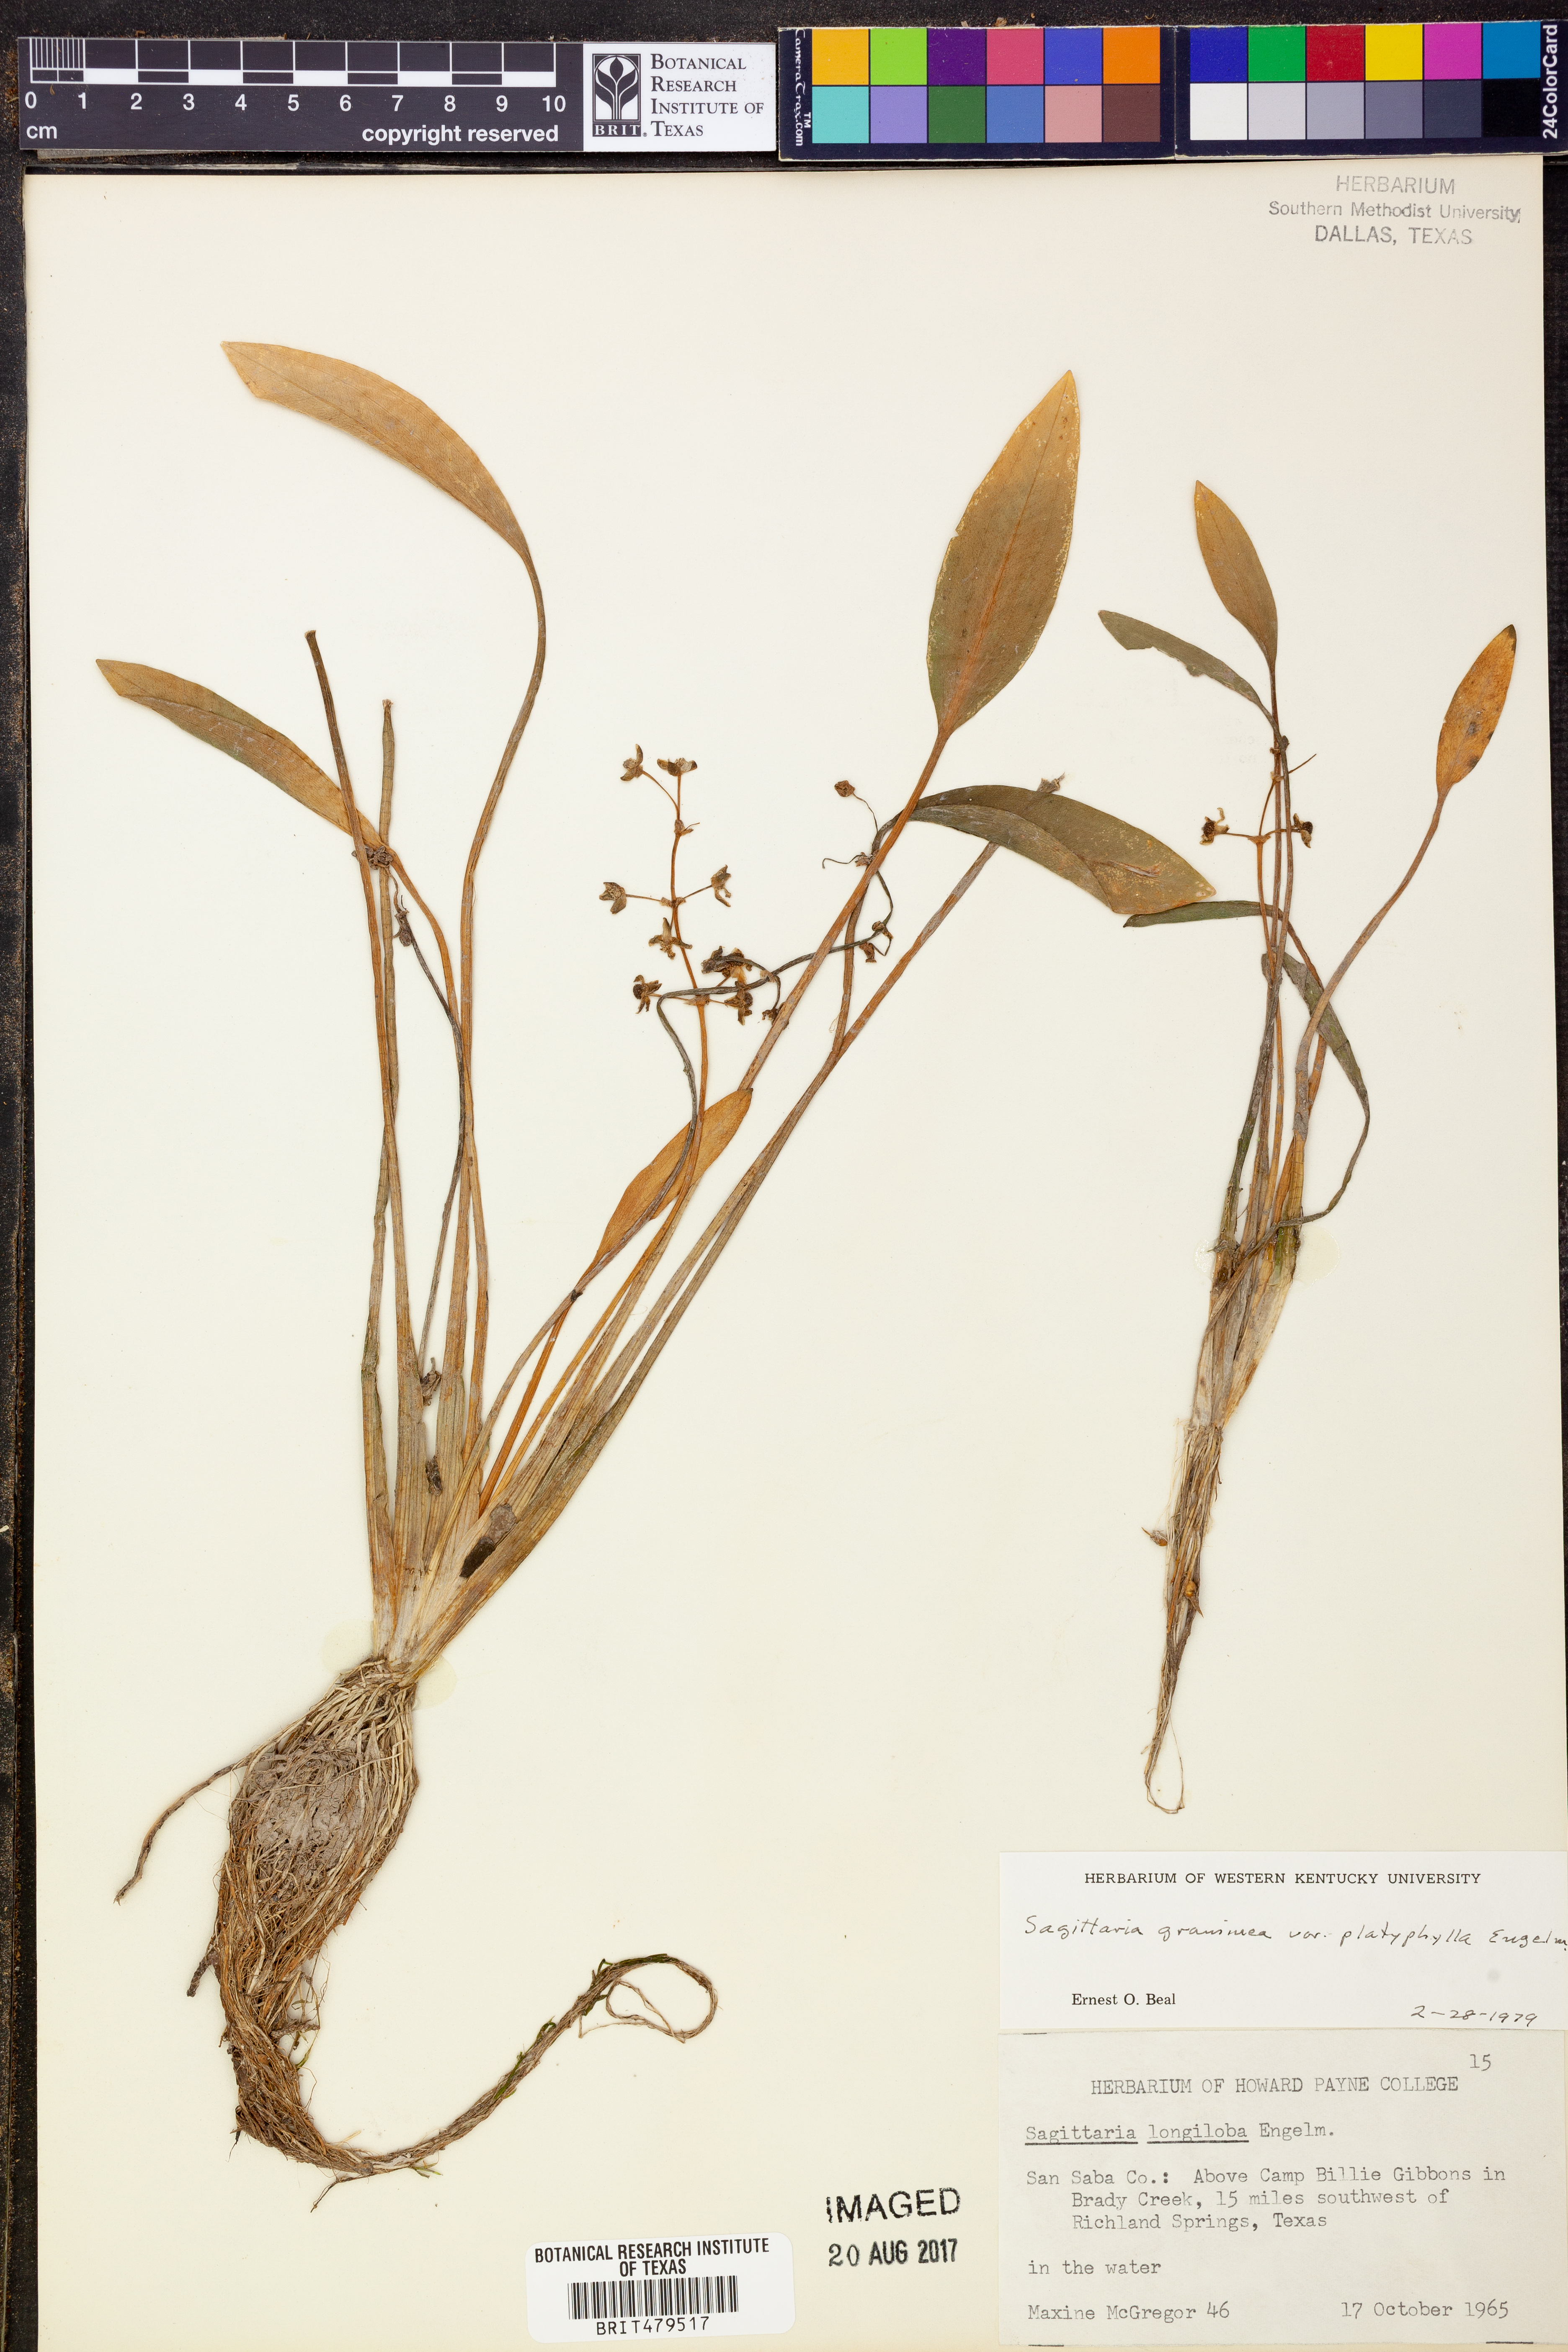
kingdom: Plantae
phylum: Tracheophyta
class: Liliopsida
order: Alismatales
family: Alismataceae
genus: Sagittaria
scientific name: Sagittaria platyphylla
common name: Broad-leaf arrowhead
